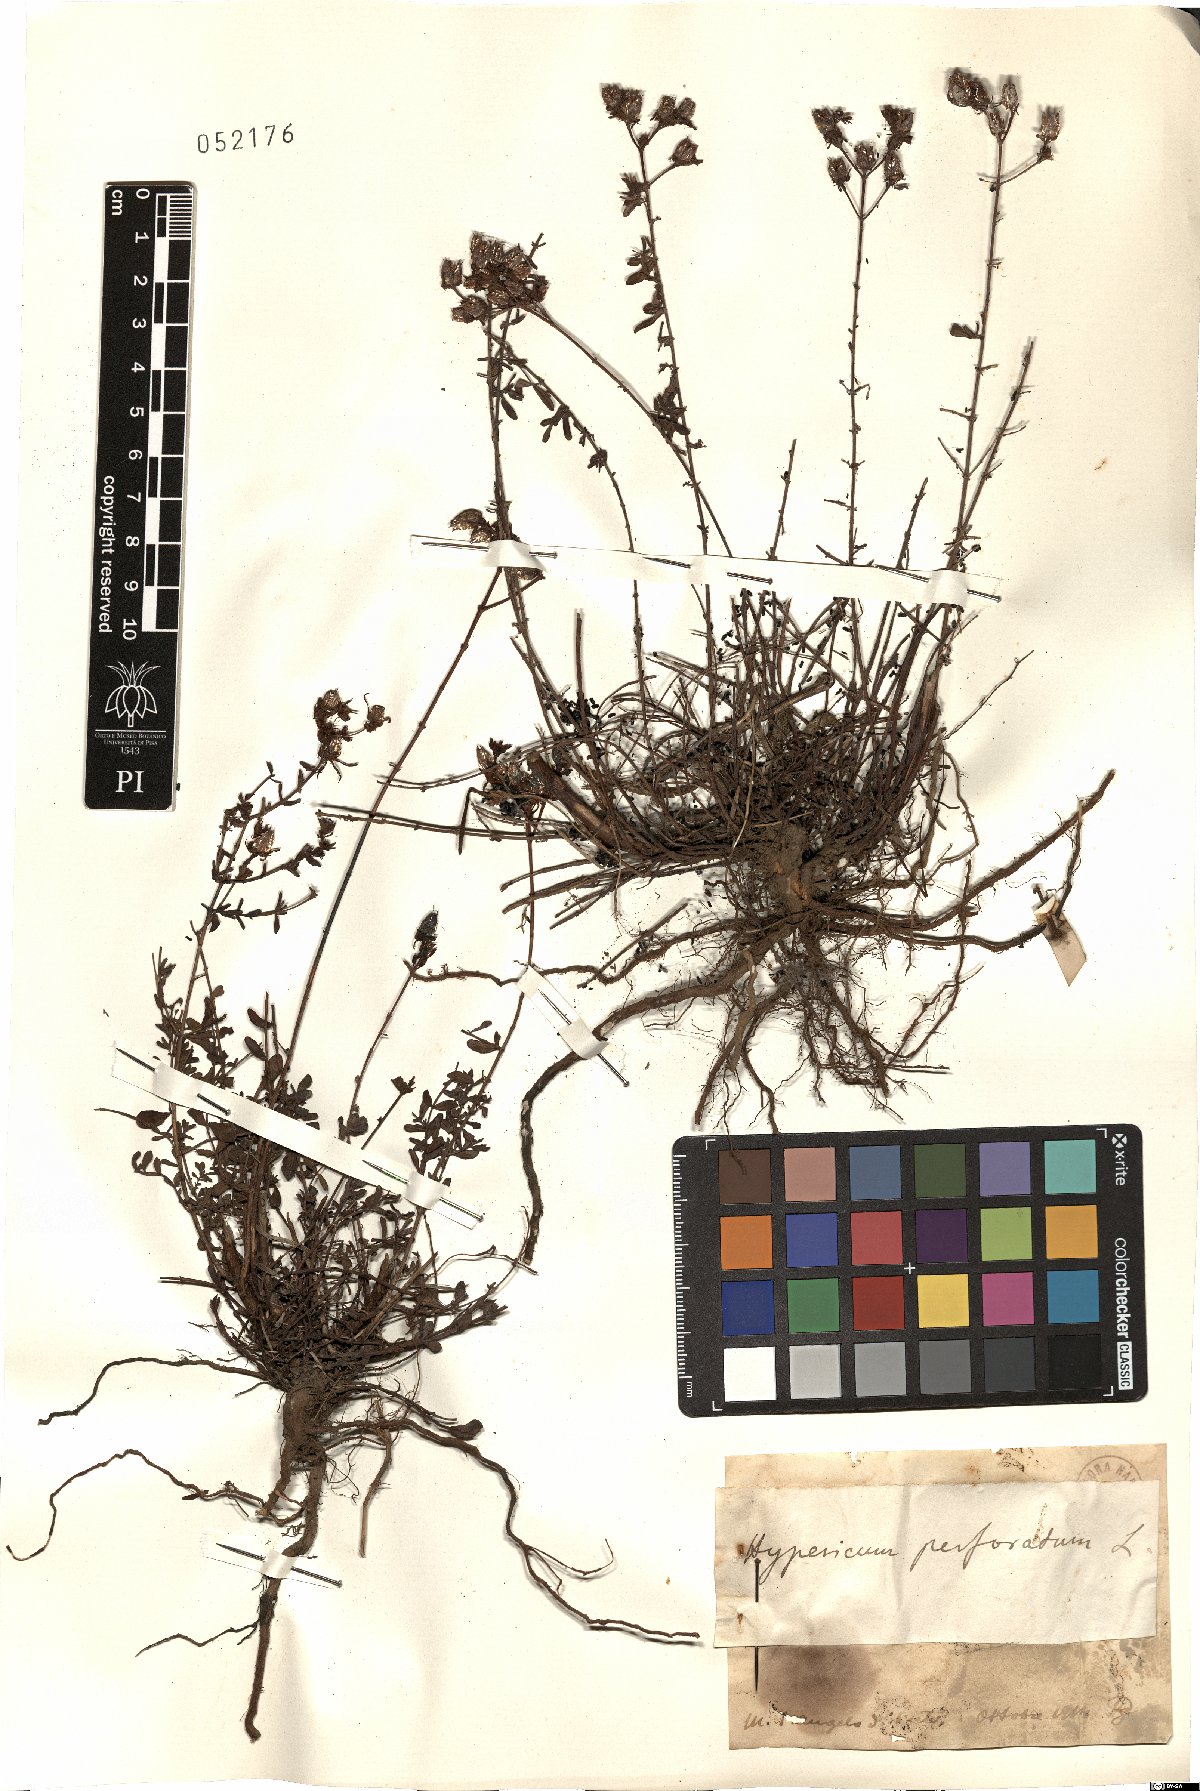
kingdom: Plantae
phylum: Tracheophyta
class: Magnoliopsida
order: Malpighiales
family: Hypericaceae
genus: Hypericum
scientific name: Hypericum perforatum
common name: Common st. johnswort
